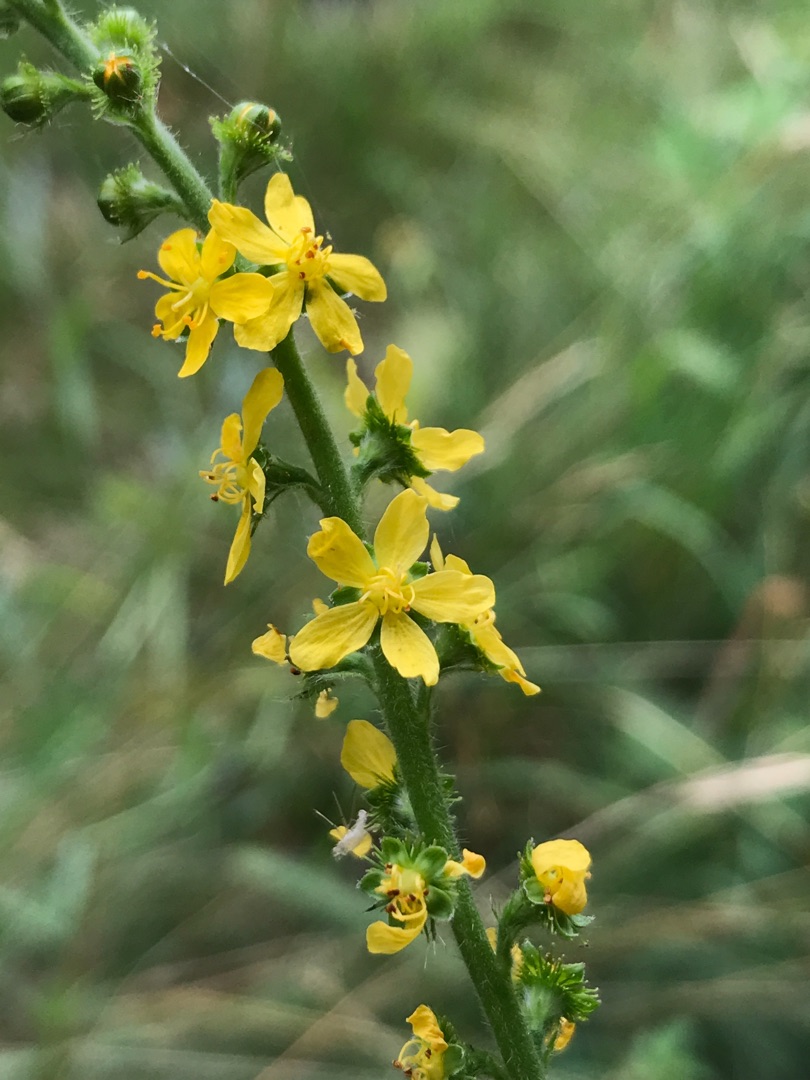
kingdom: Plantae
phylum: Tracheophyta
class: Magnoliopsida
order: Rosales
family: Rosaceae
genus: Agrimonia
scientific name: Agrimonia eupatoria
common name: Almindelig agermåne
